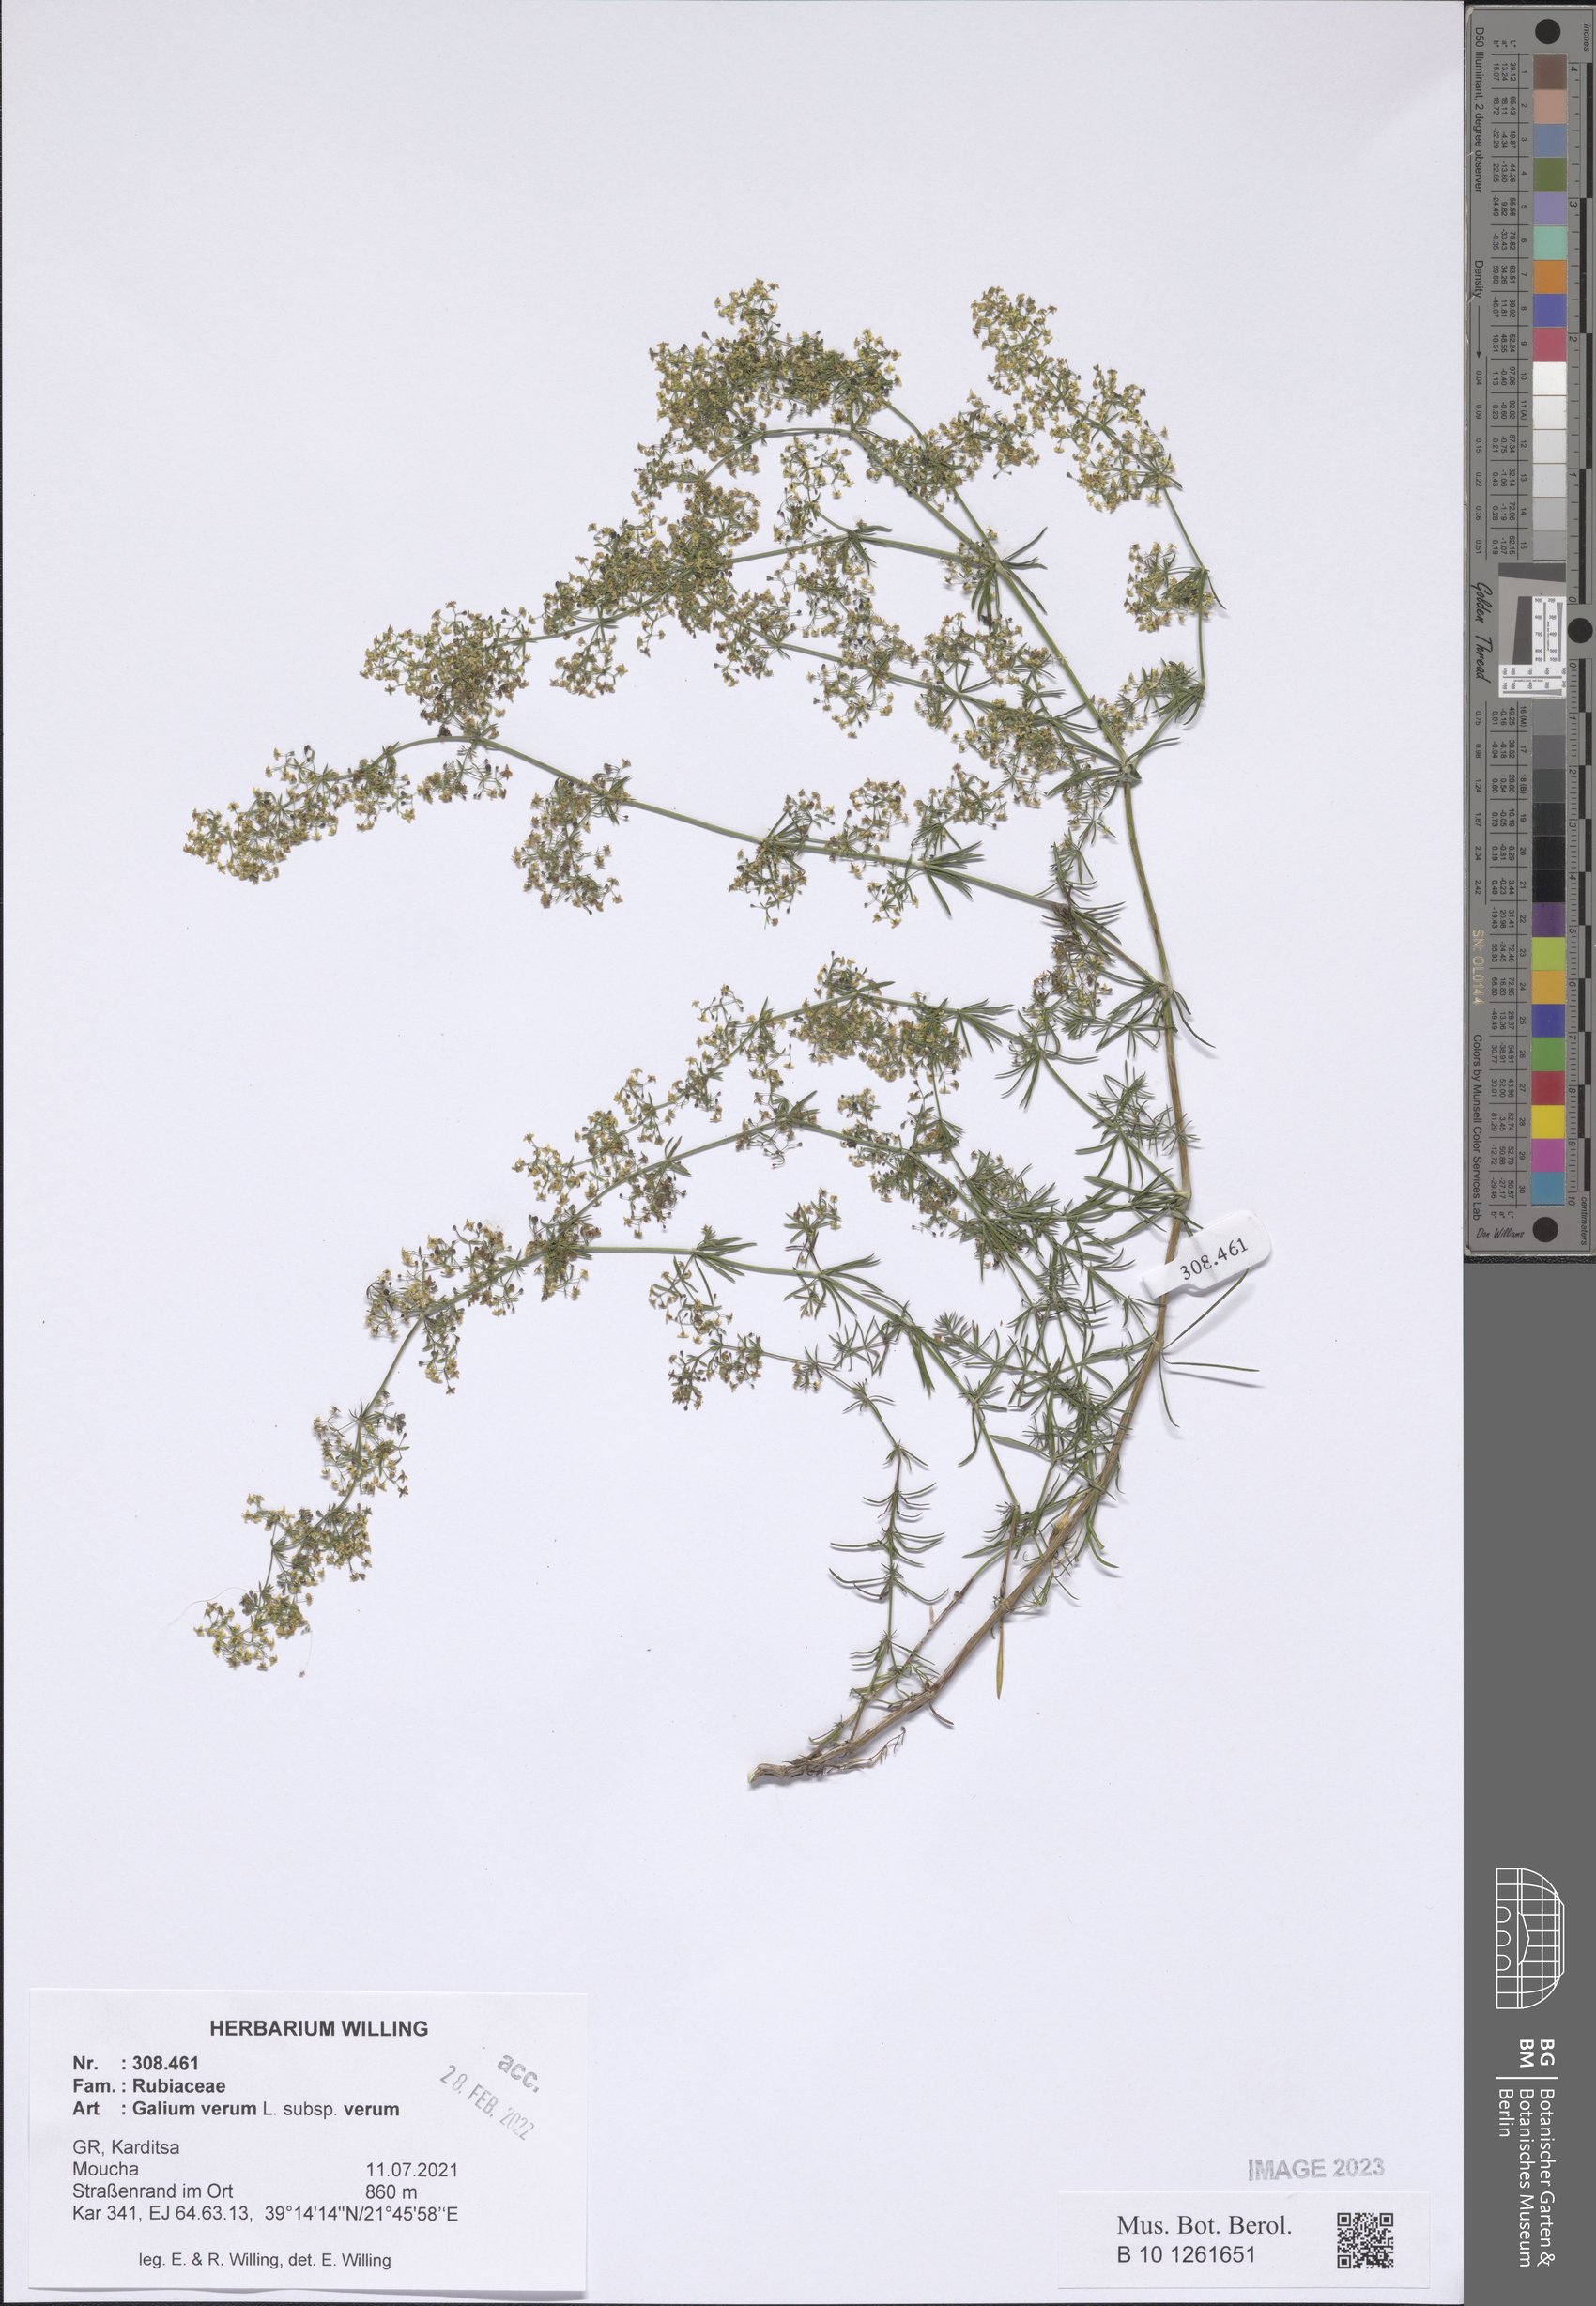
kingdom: Plantae
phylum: Tracheophyta
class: Magnoliopsida
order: Gentianales
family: Rubiaceae
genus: Galium
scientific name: Galium verum
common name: Lady's bedstraw
